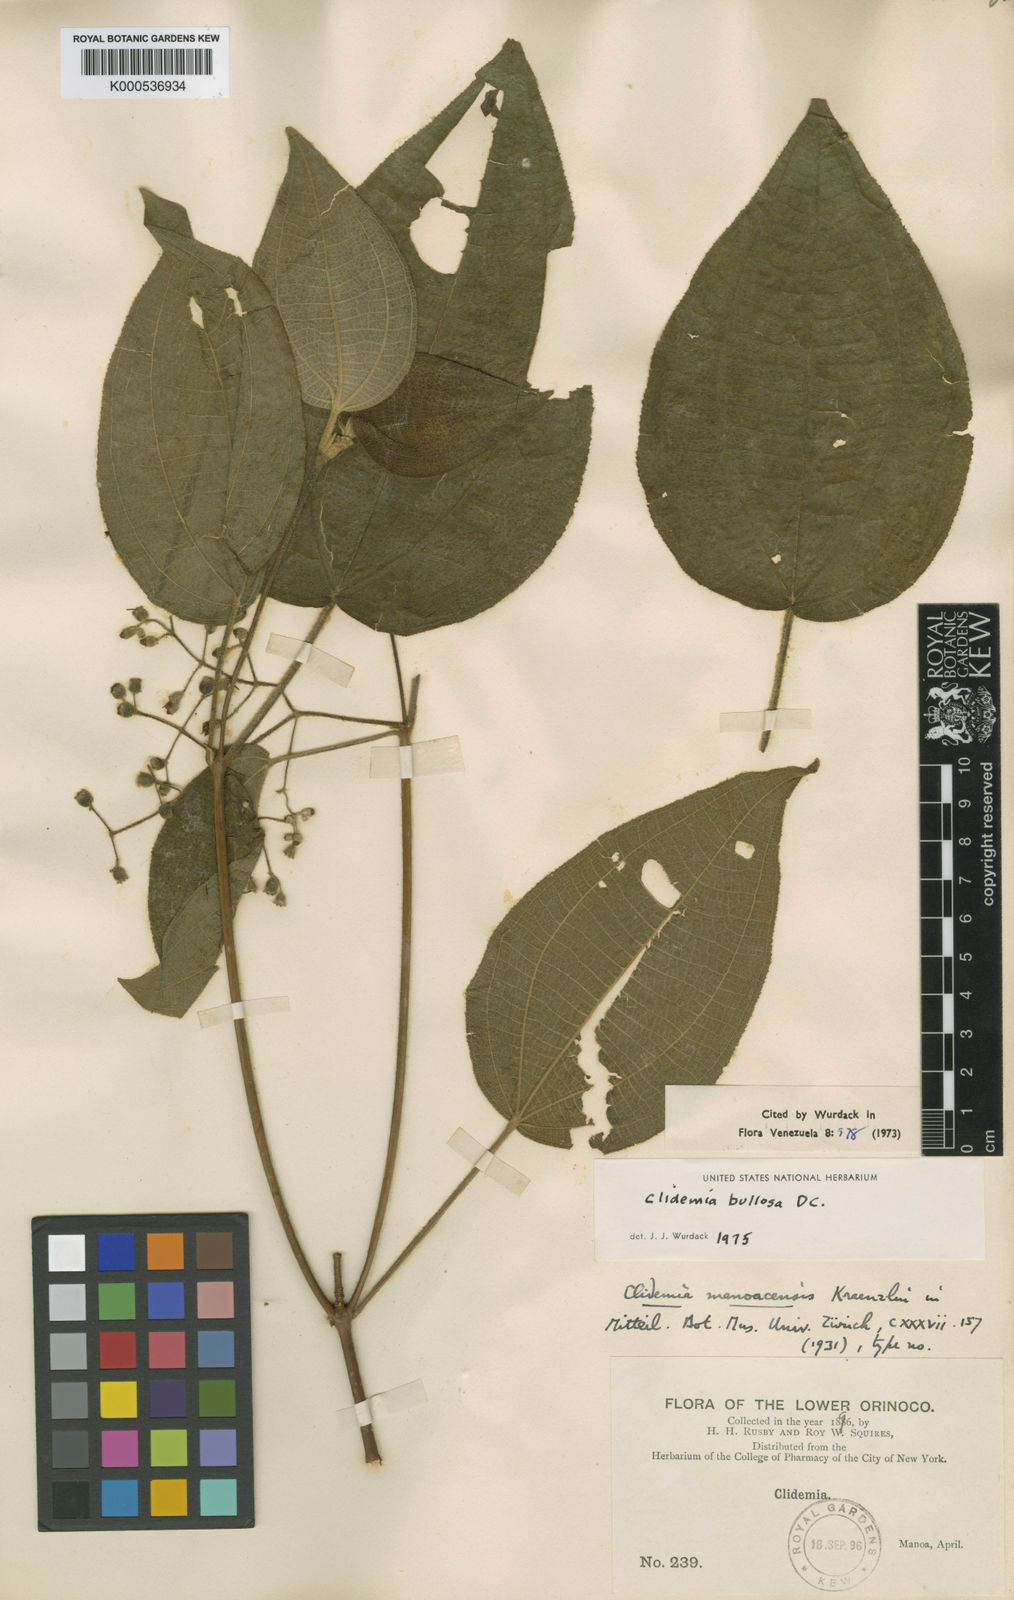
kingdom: Plantae
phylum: Tracheophyta
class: Magnoliopsida
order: Myrtales
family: Melastomataceae
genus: Miconia
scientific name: Miconia bullosa
